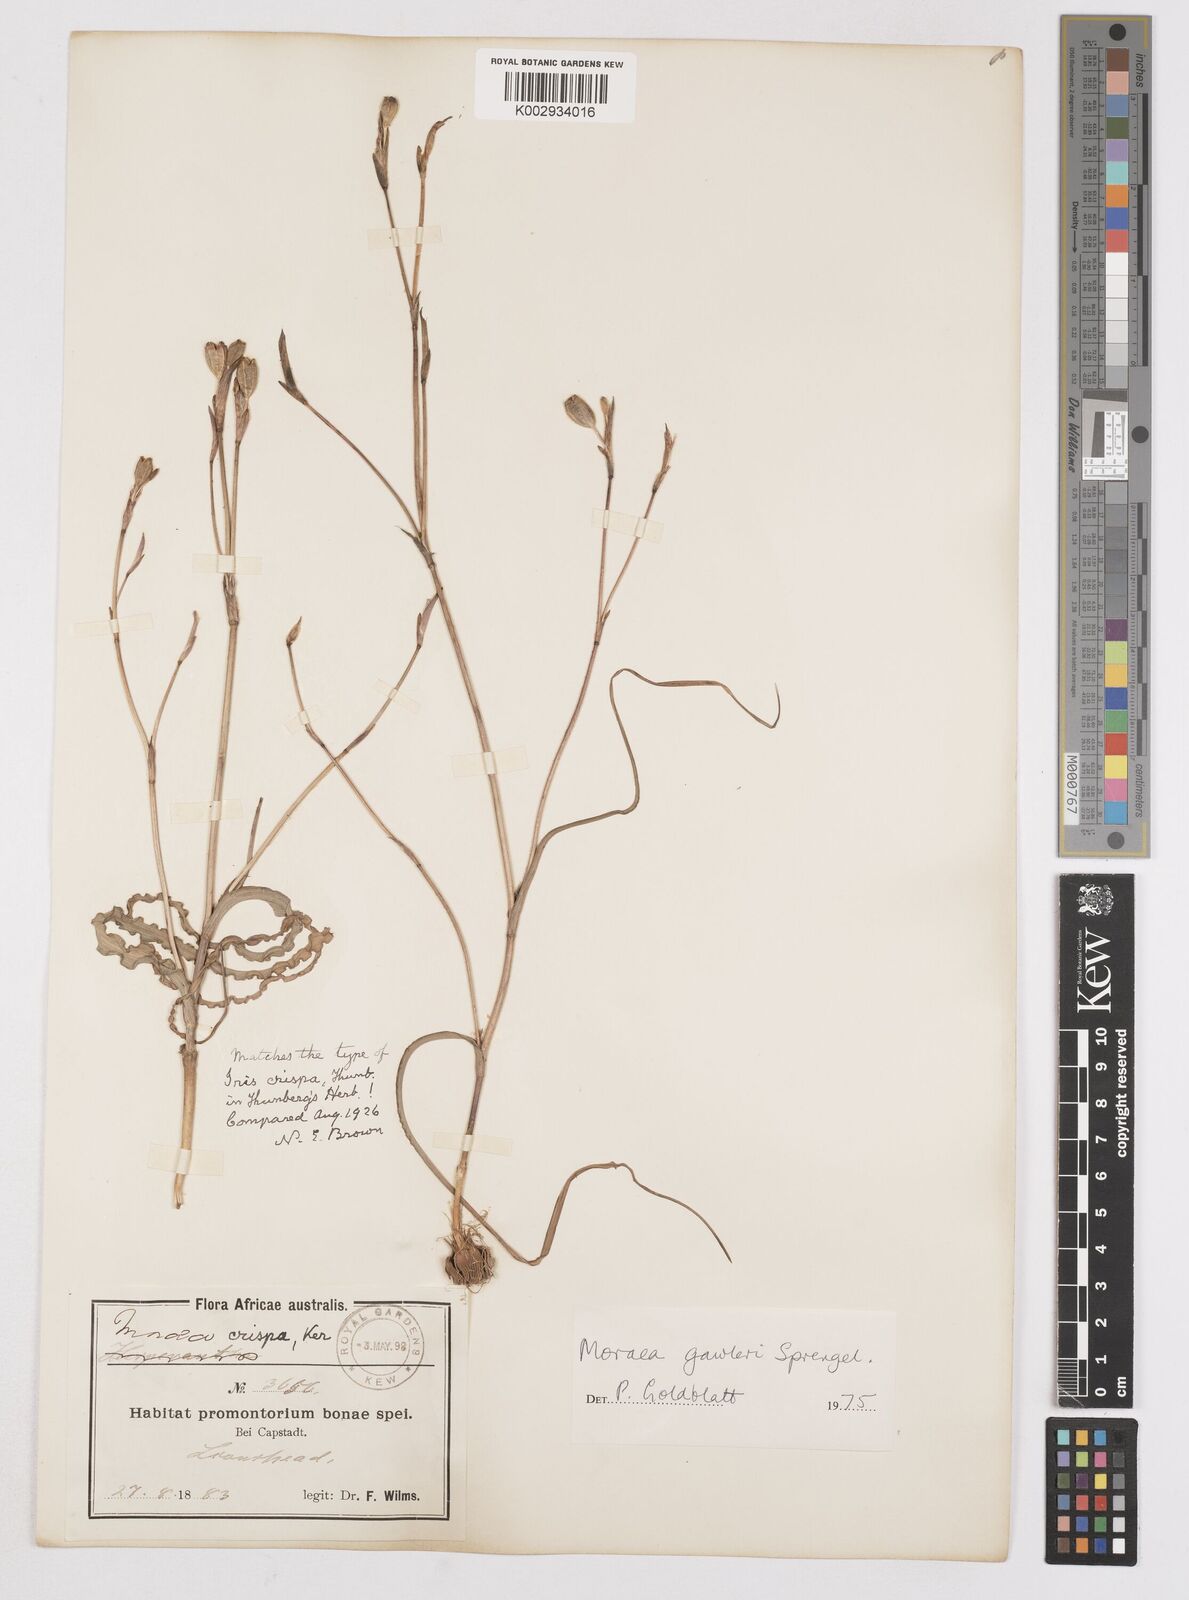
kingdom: Plantae
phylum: Tracheophyta
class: Liliopsida
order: Asparagales
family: Iridaceae
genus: Moraea
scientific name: Moraea gawleri
